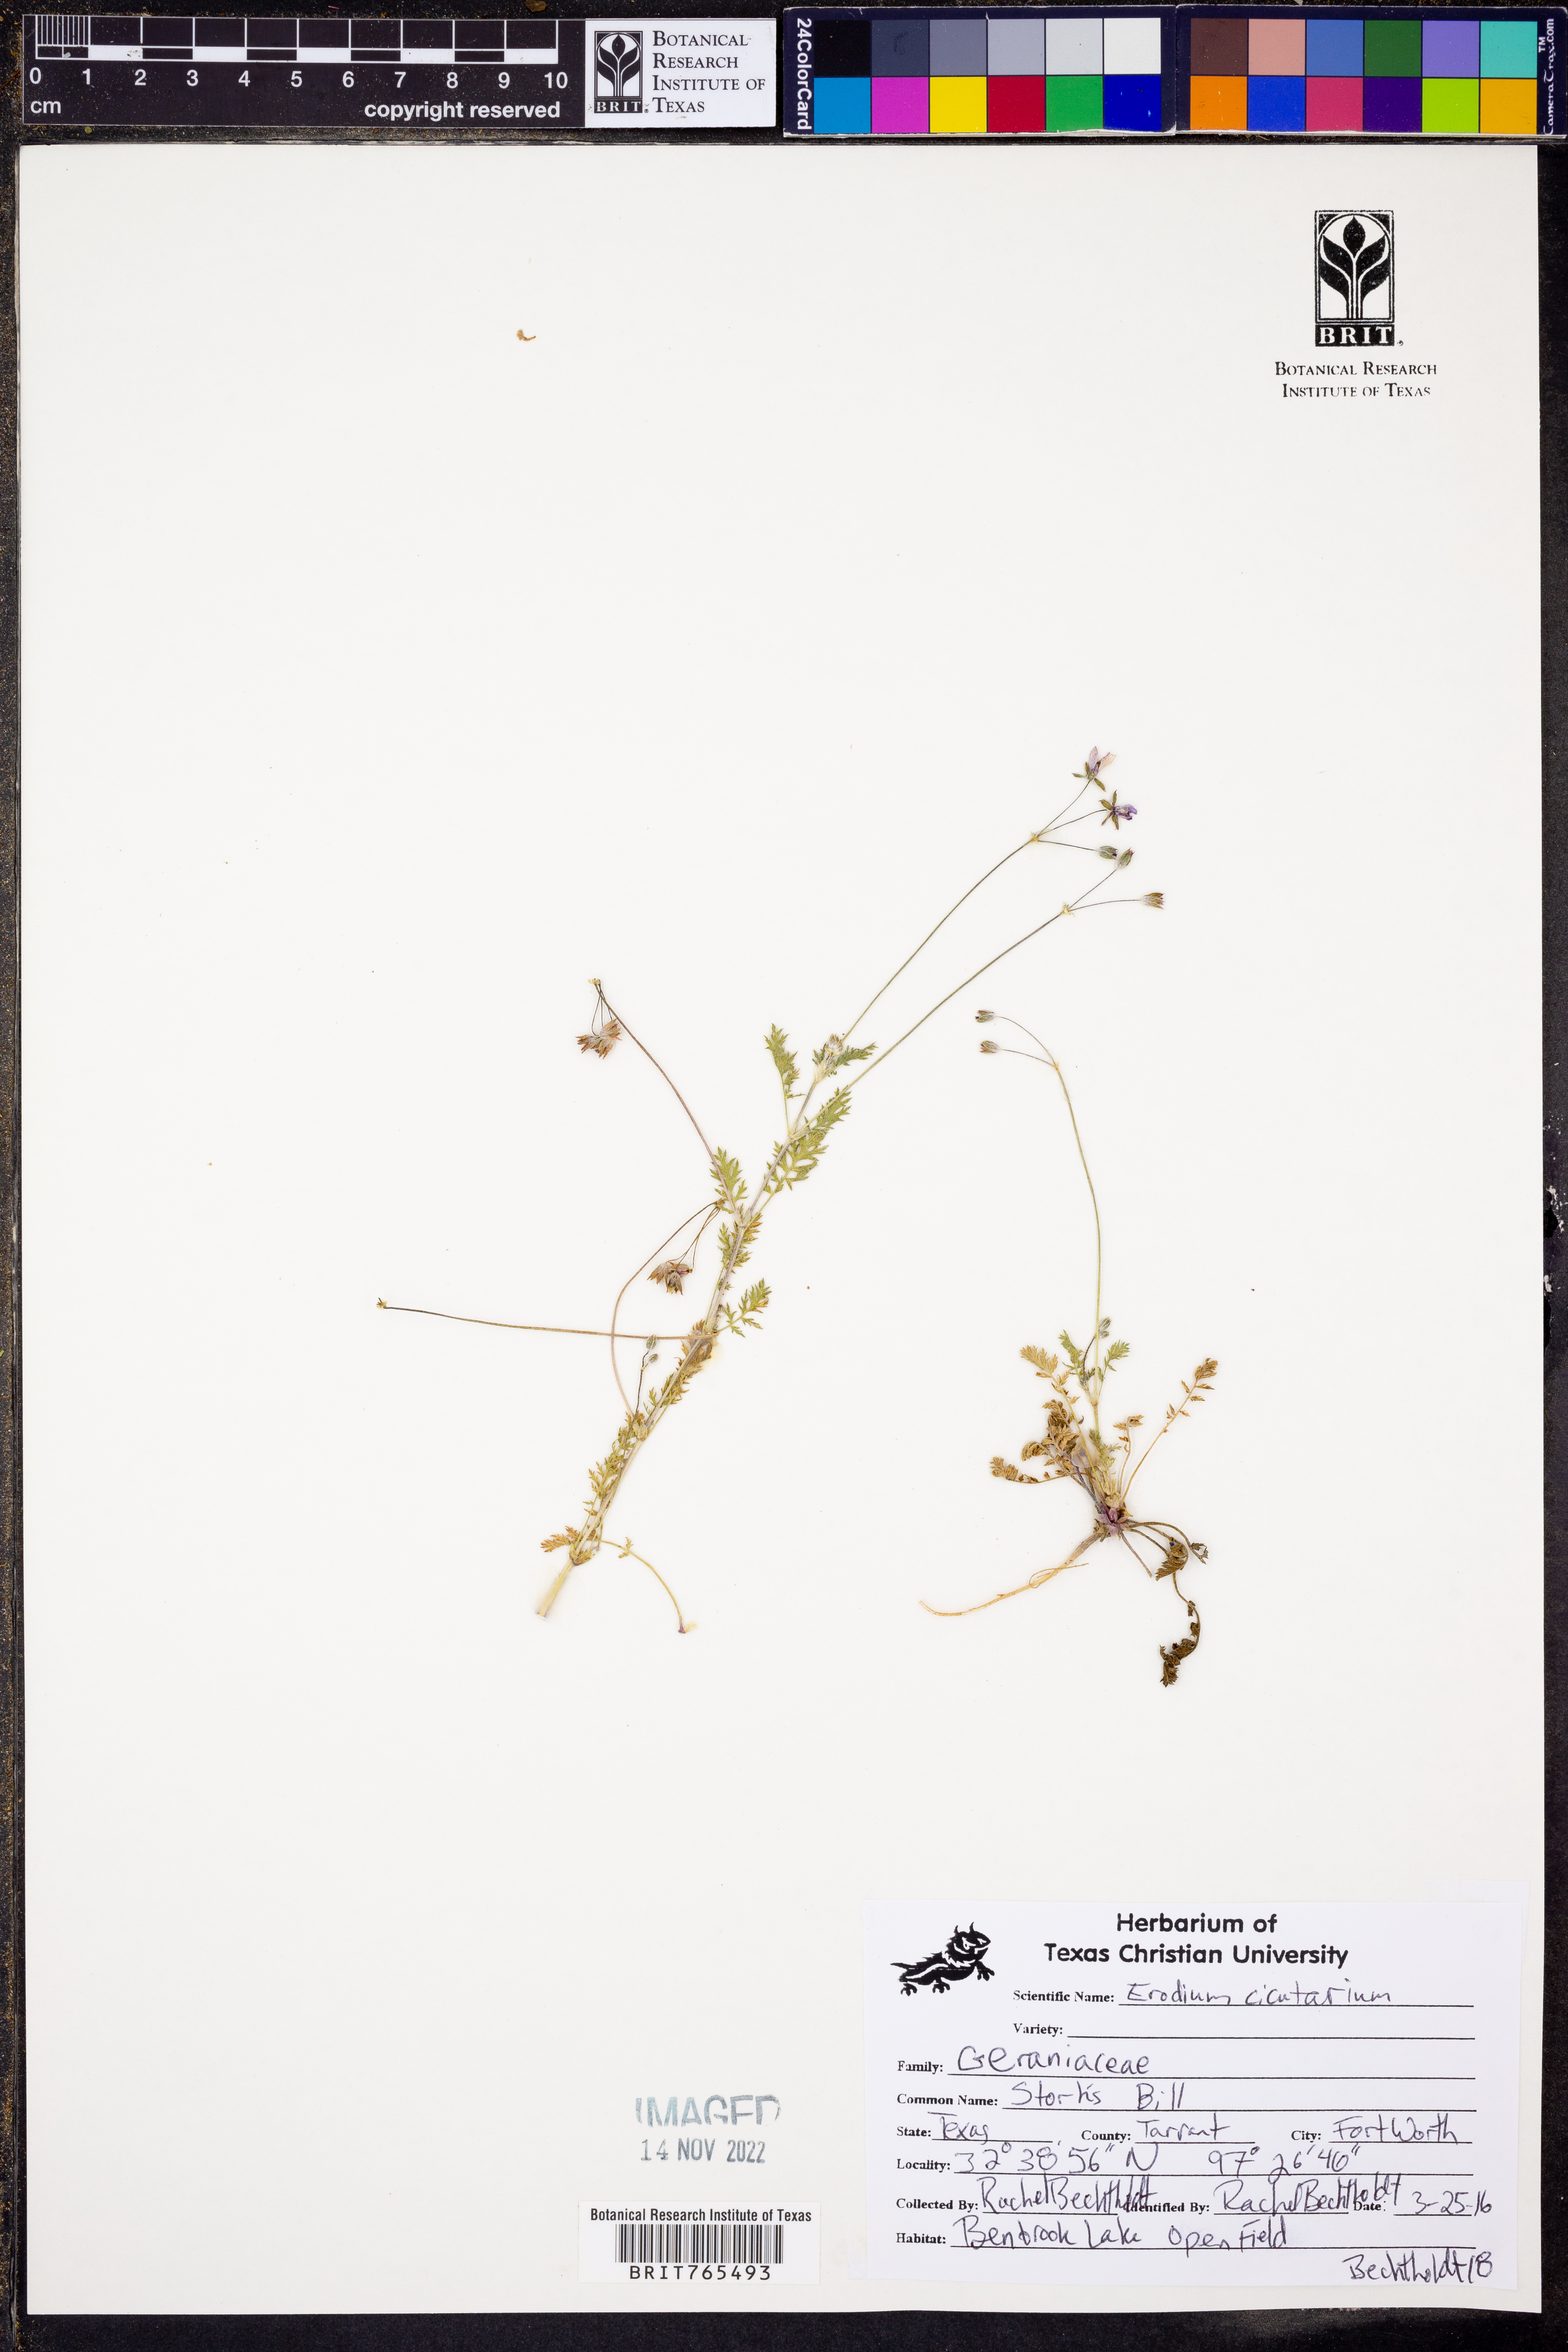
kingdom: Plantae
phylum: Tracheophyta
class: Magnoliopsida
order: Geraniales
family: Geraniaceae
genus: Erodium
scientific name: Erodium cicutarium
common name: Common stork's-bill
